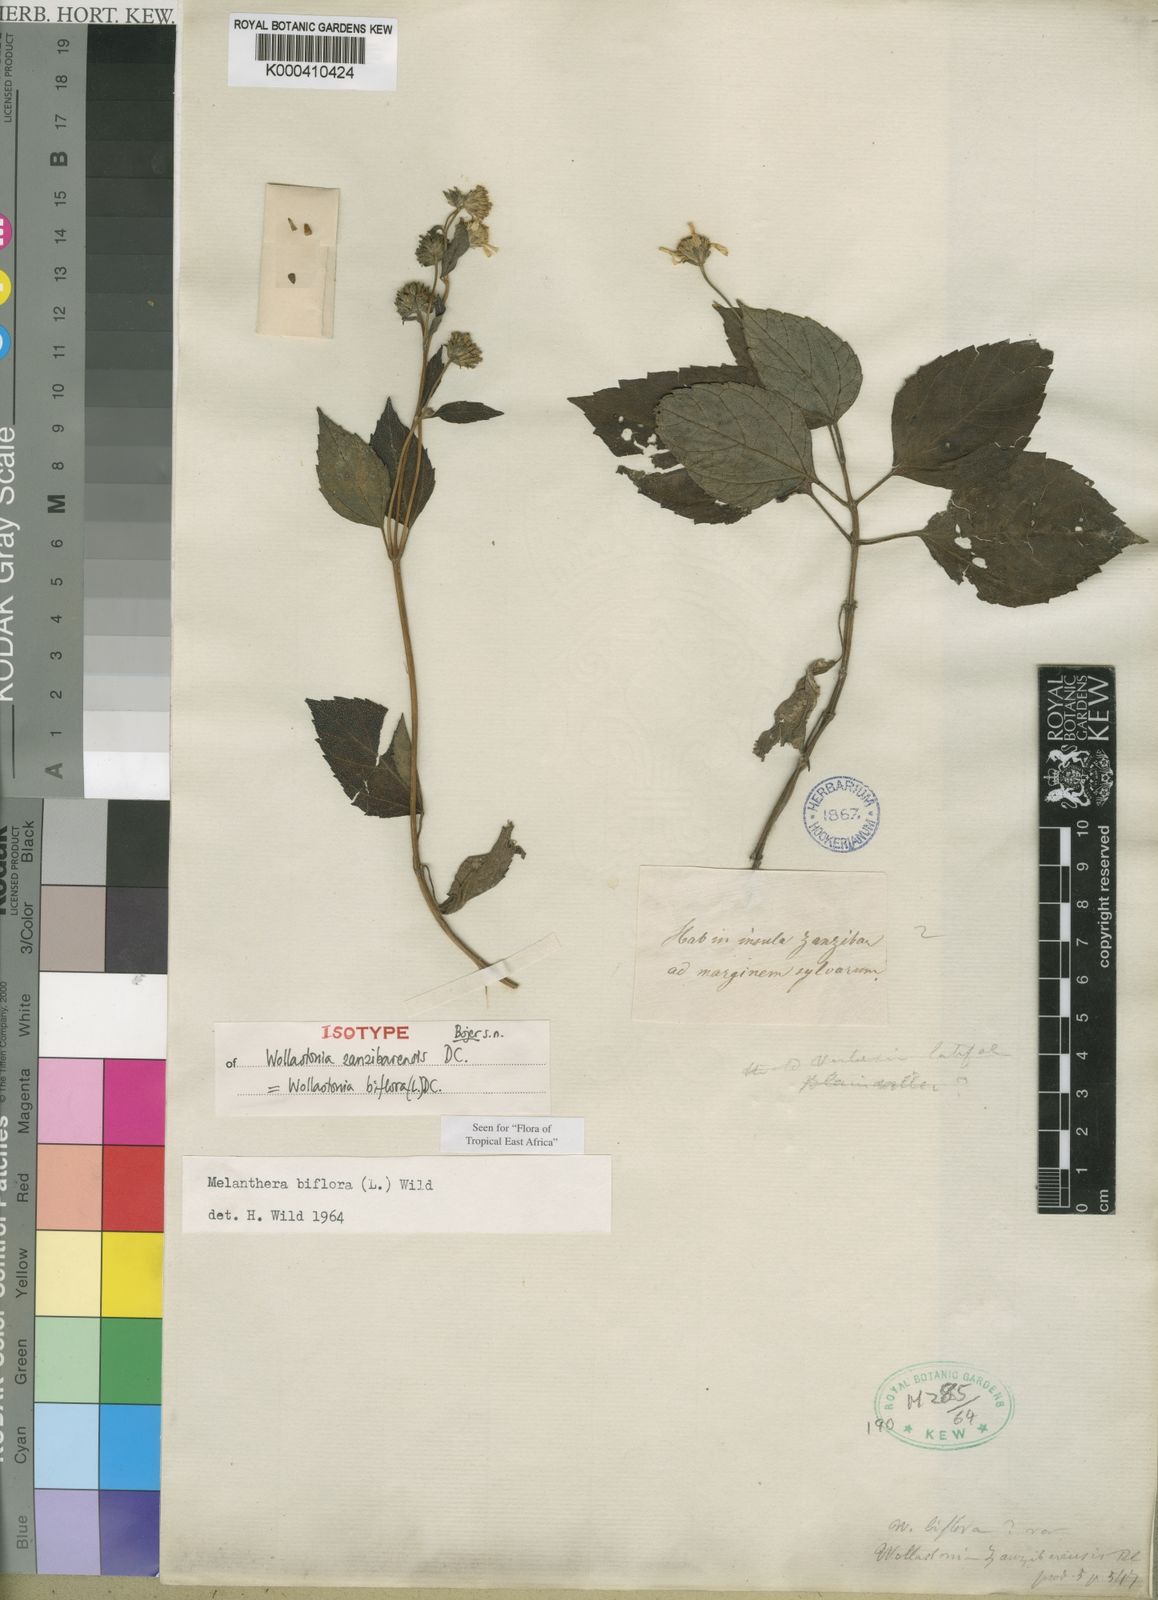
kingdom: Plantae
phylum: Tracheophyta
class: Magnoliopsida
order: Asterales
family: Asteraceae
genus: Wollastonia
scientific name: Wollastonia biflora
